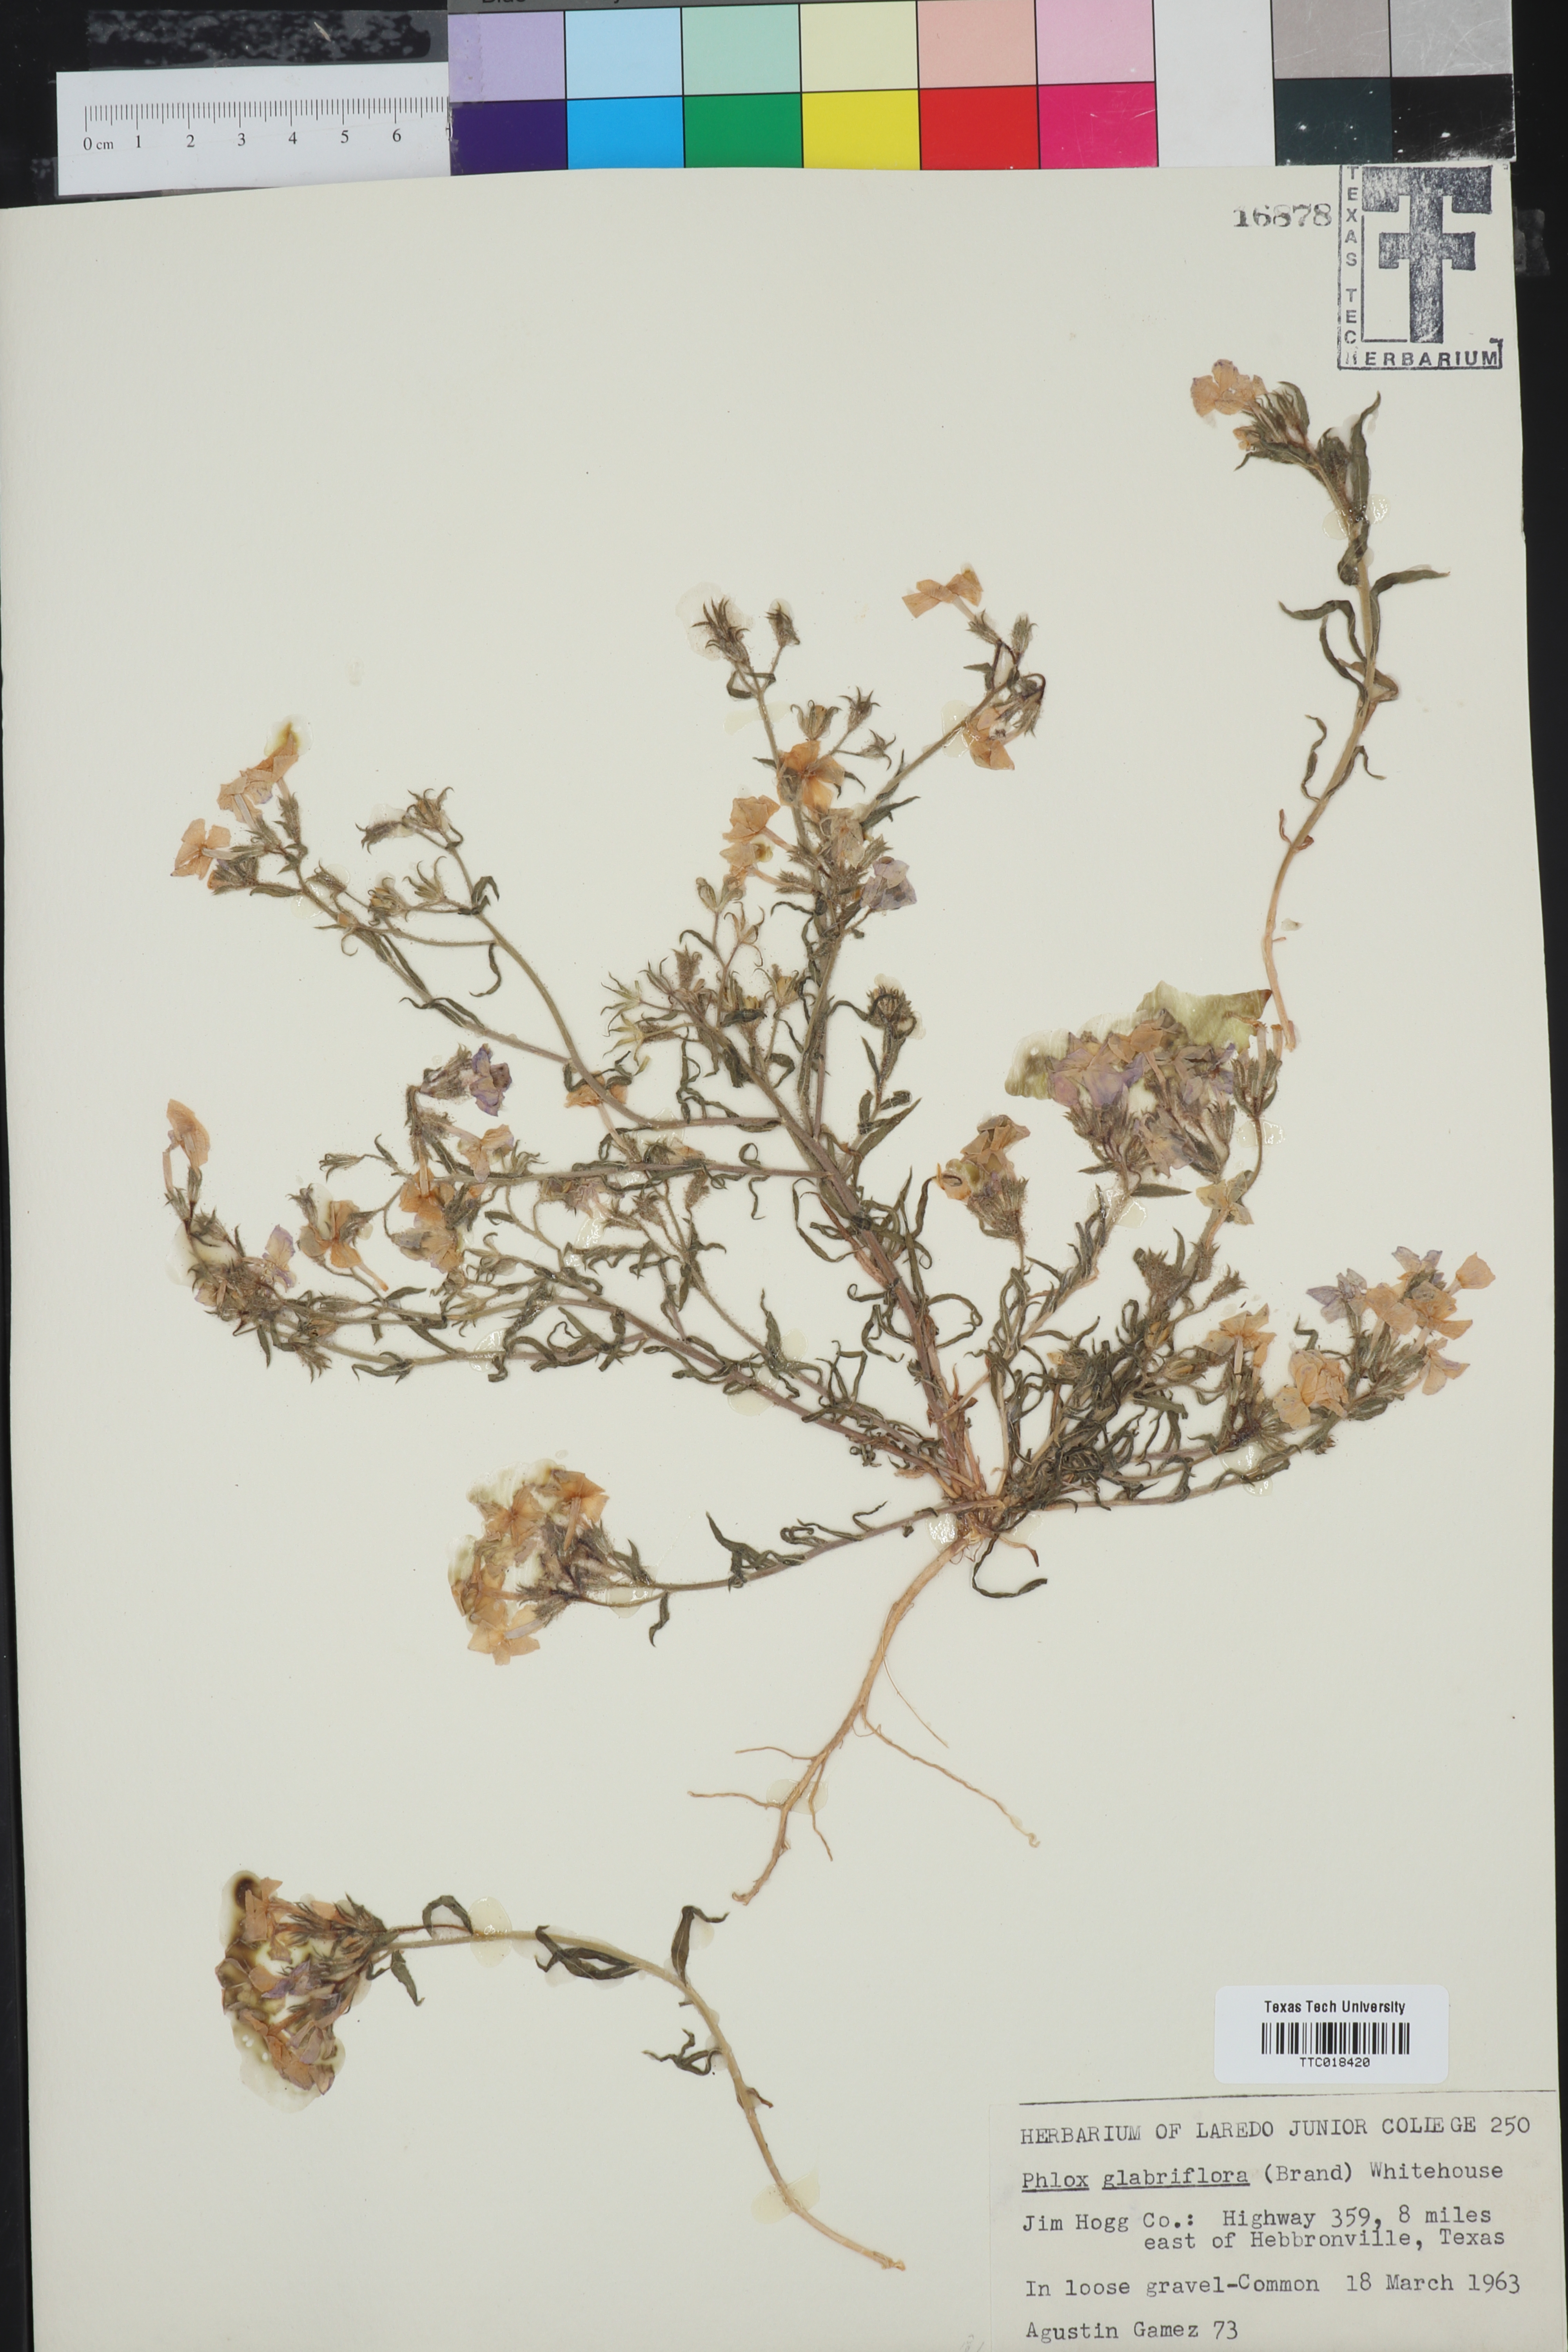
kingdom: Plantae
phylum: Tracheophyta
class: Magnoliopsida
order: Ericales
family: Polemoniaceae
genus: Phlox
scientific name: Phlox glabriflora
